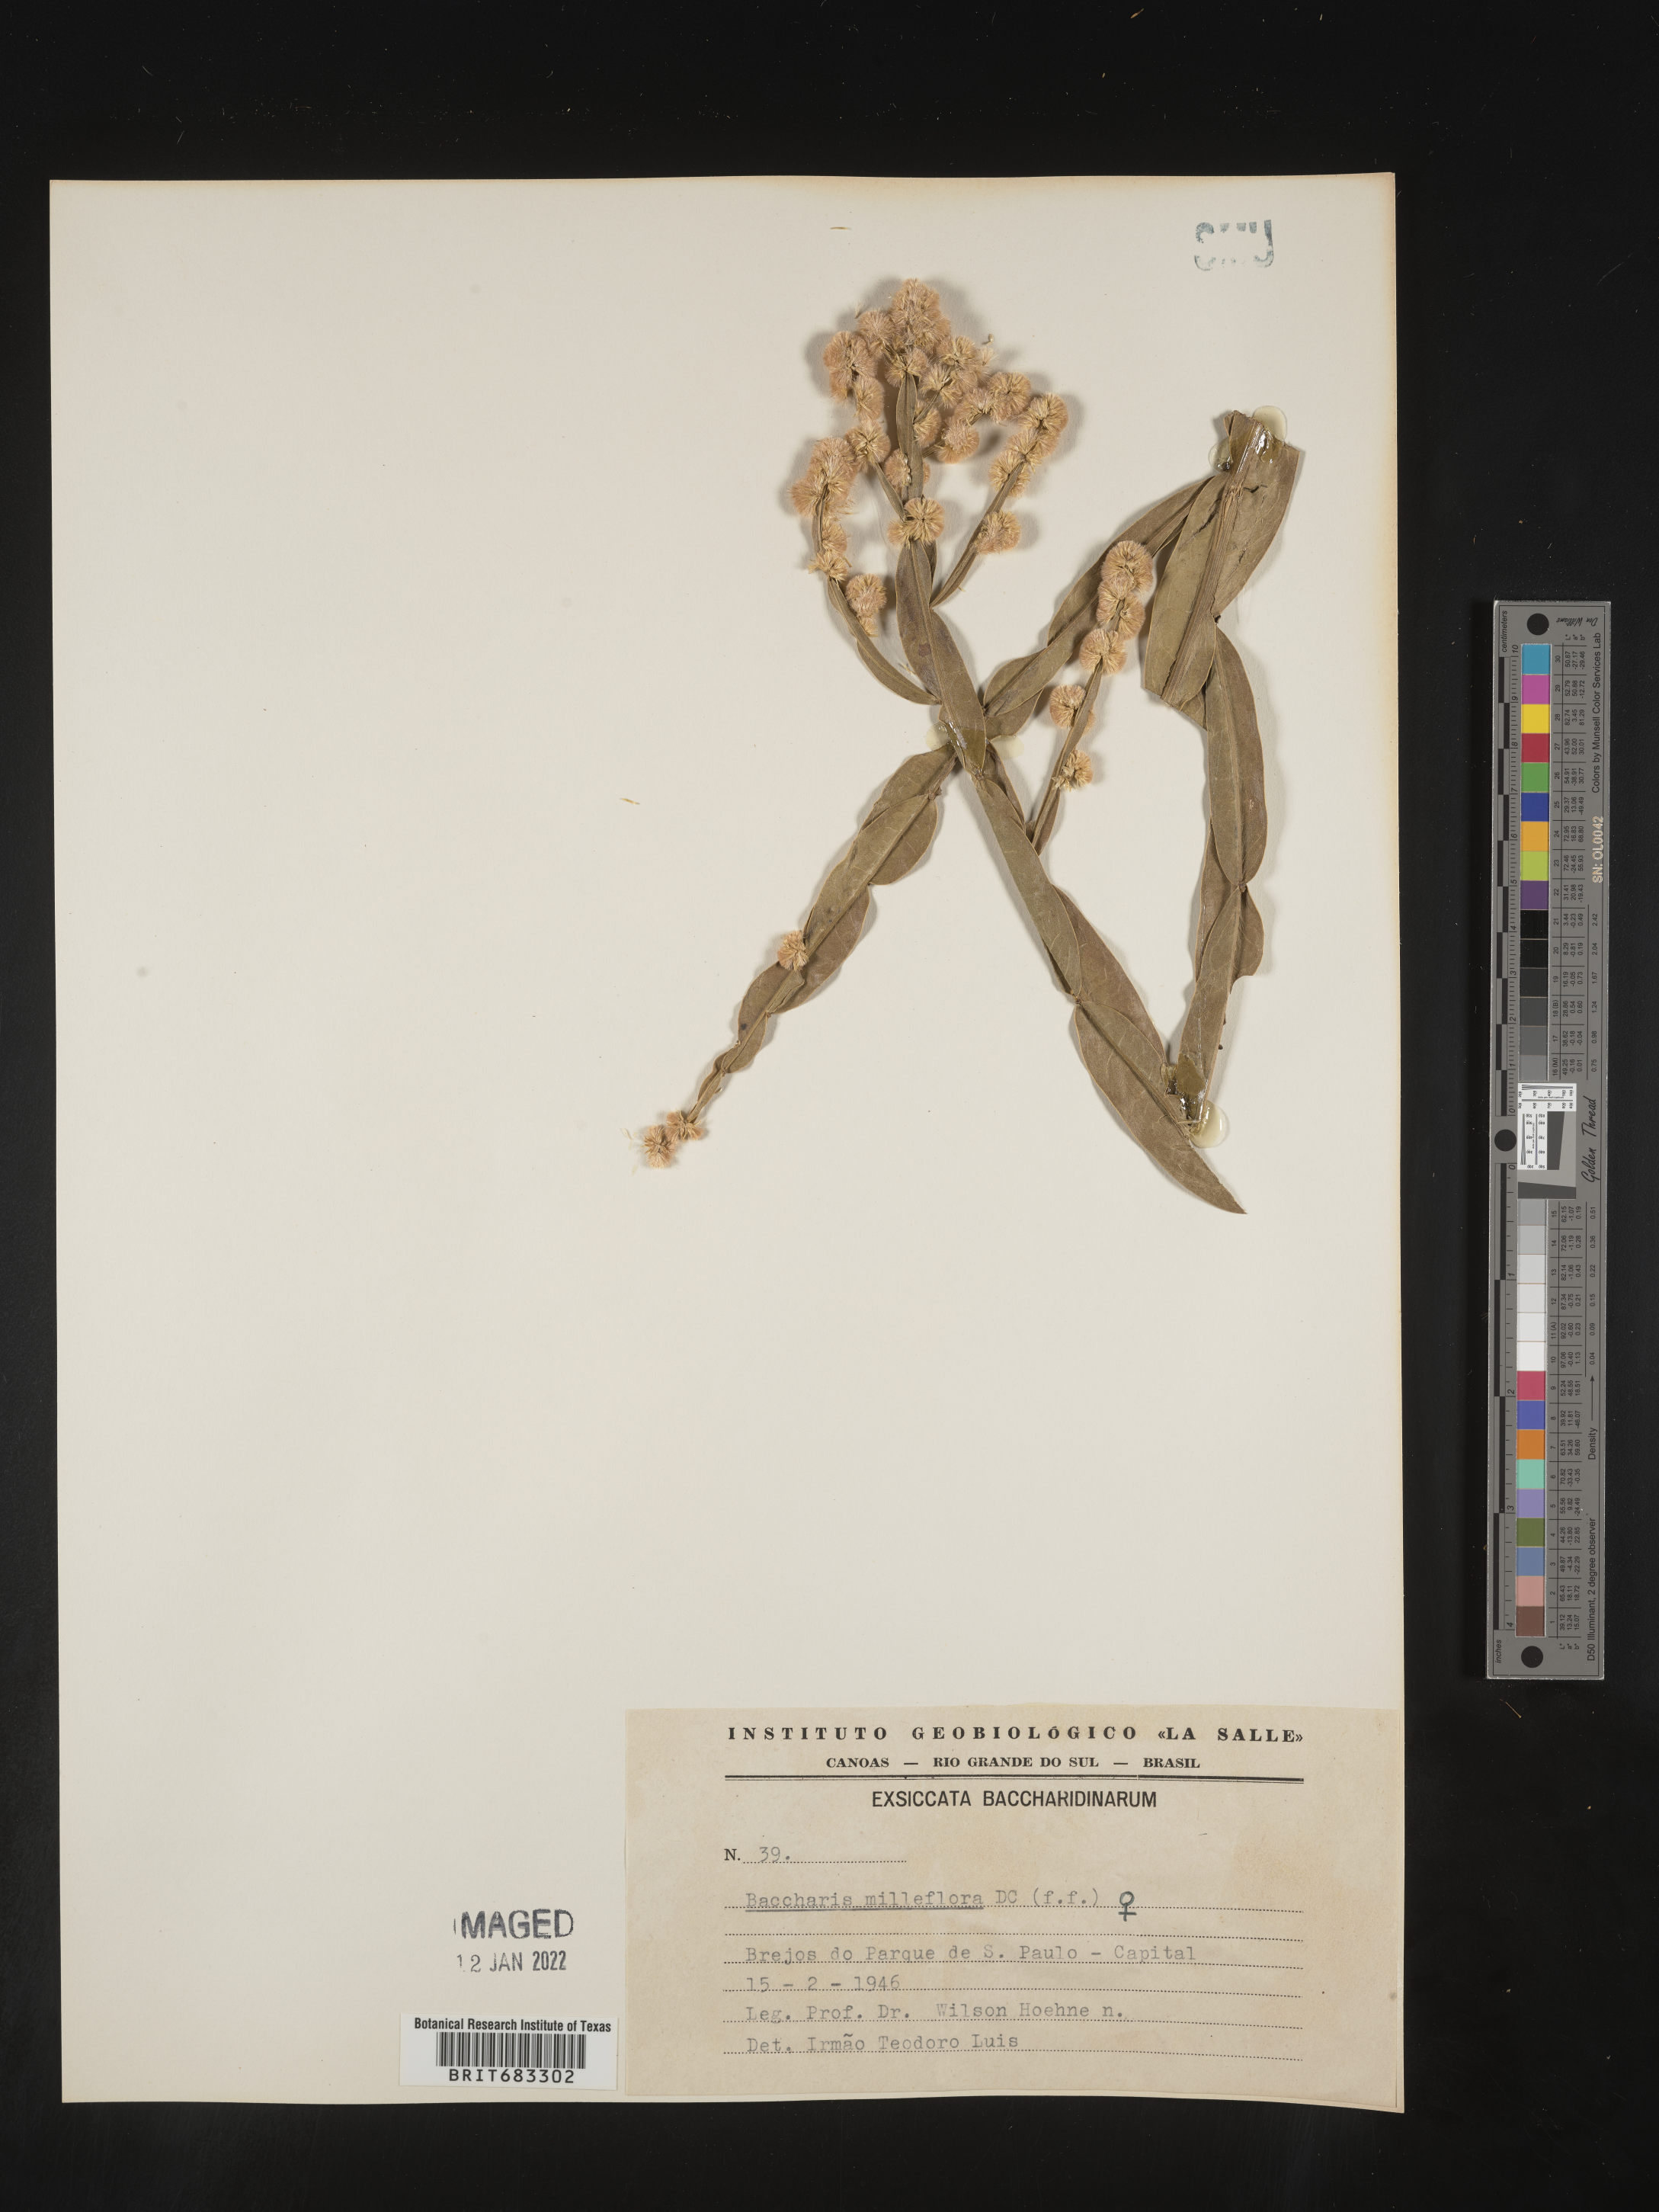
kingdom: Plantae
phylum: Tracheophyta
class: Magnoliopsida
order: Asterales
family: Asteraceae
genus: Baccharis
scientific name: Baccharis
